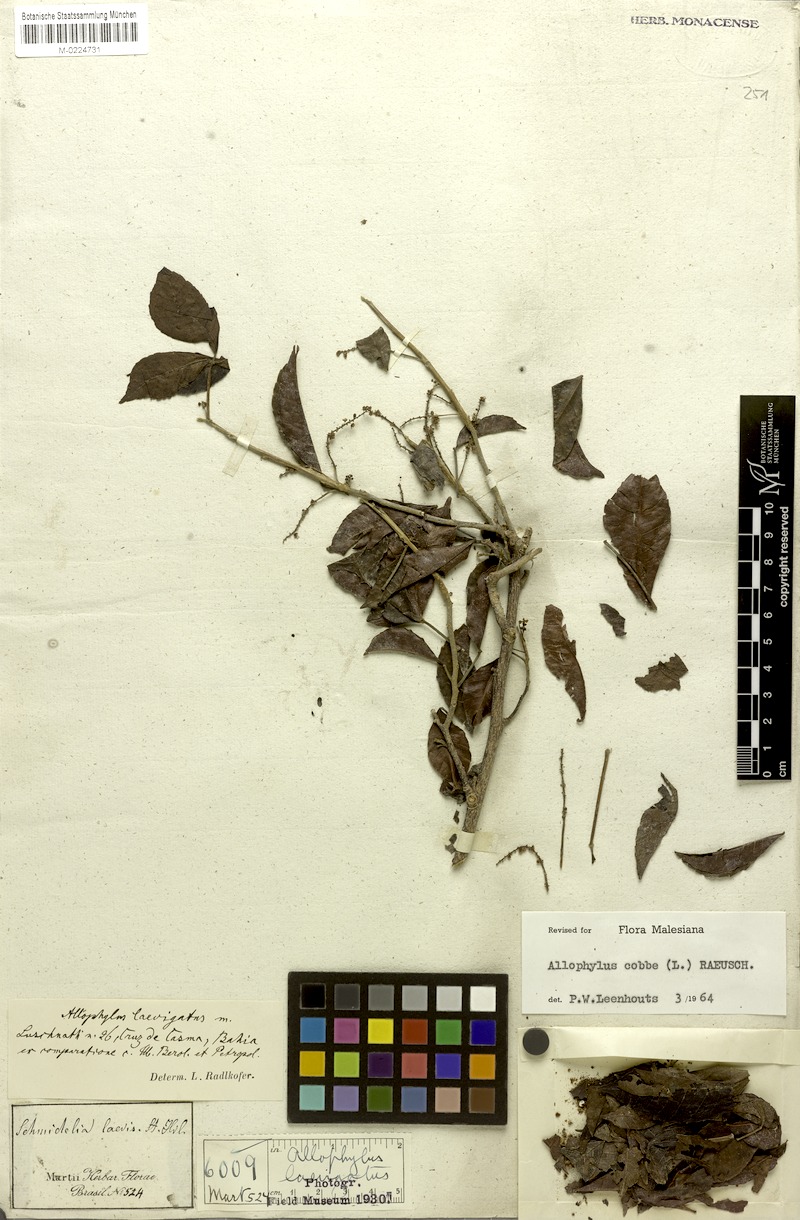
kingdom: Plantae
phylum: Tracheophyta
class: Magnoliopsida
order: Sapindales
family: Sapindaceae
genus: Allophylus
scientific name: Allophylus laevigatus
